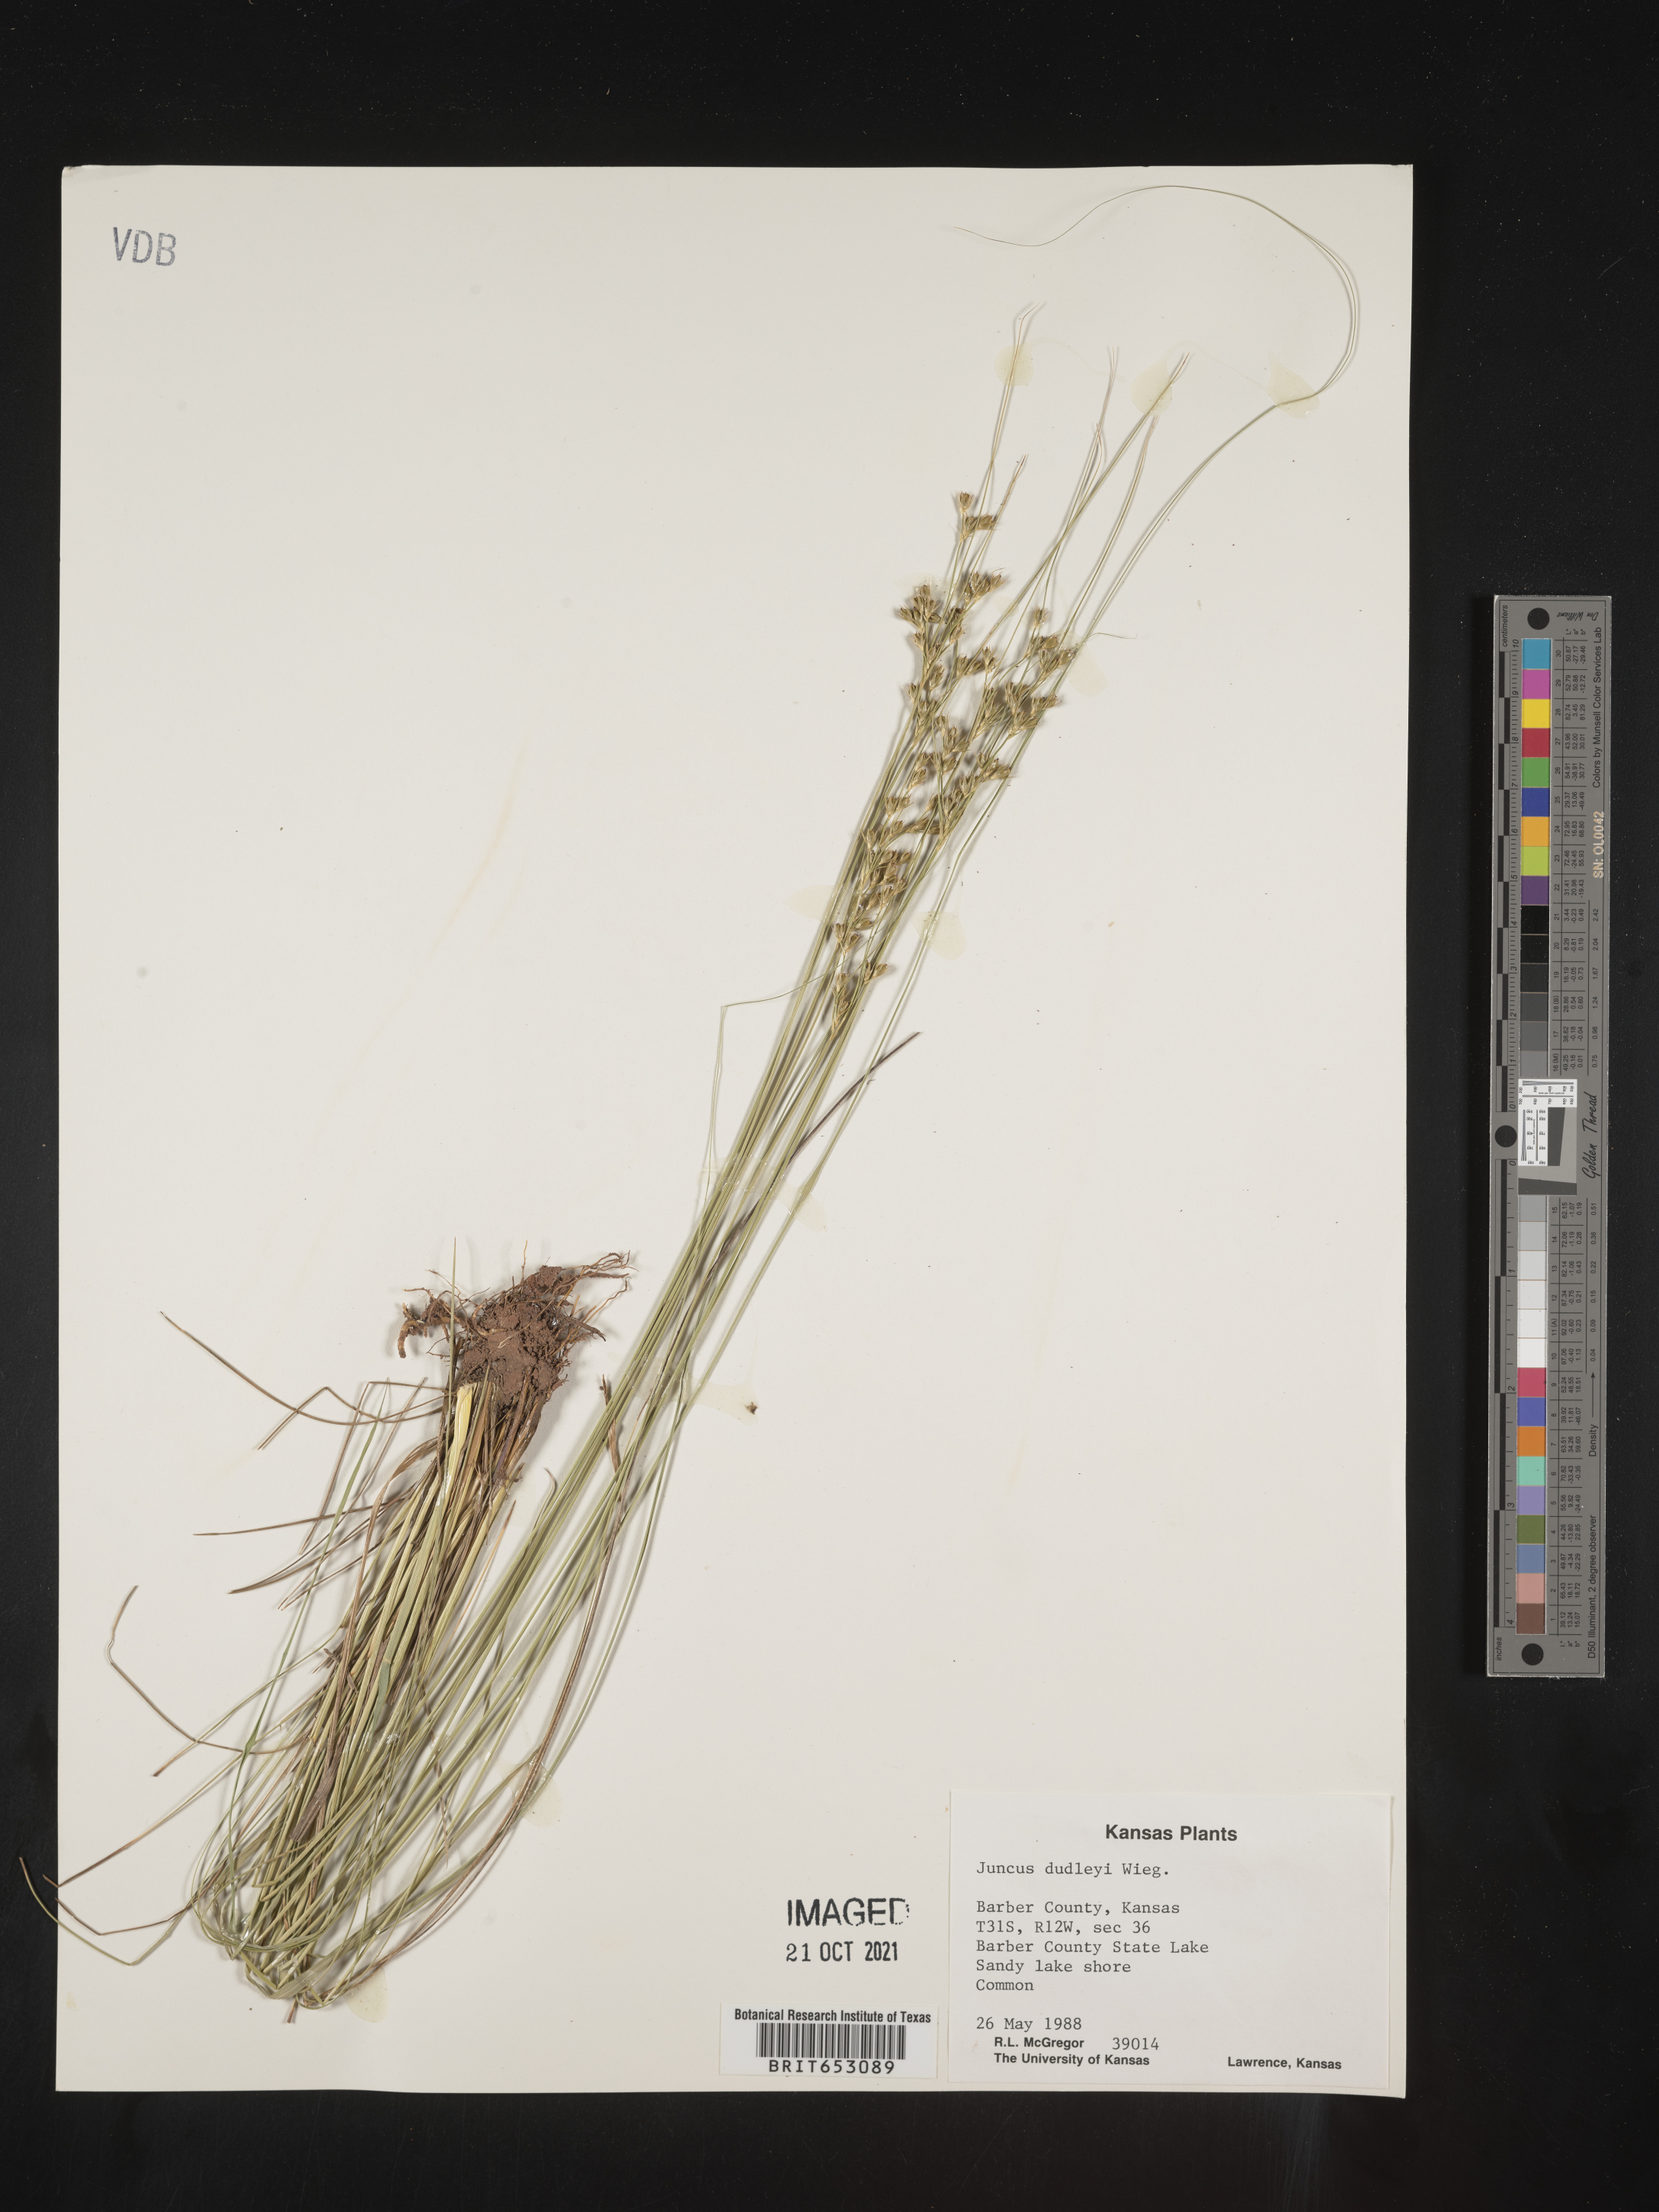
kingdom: Plantae
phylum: Tracheophyta
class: Liliopsida
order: Poales
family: Juncaceae
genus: Juncus
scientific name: Juncus dudleyi
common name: Dudley's rush
